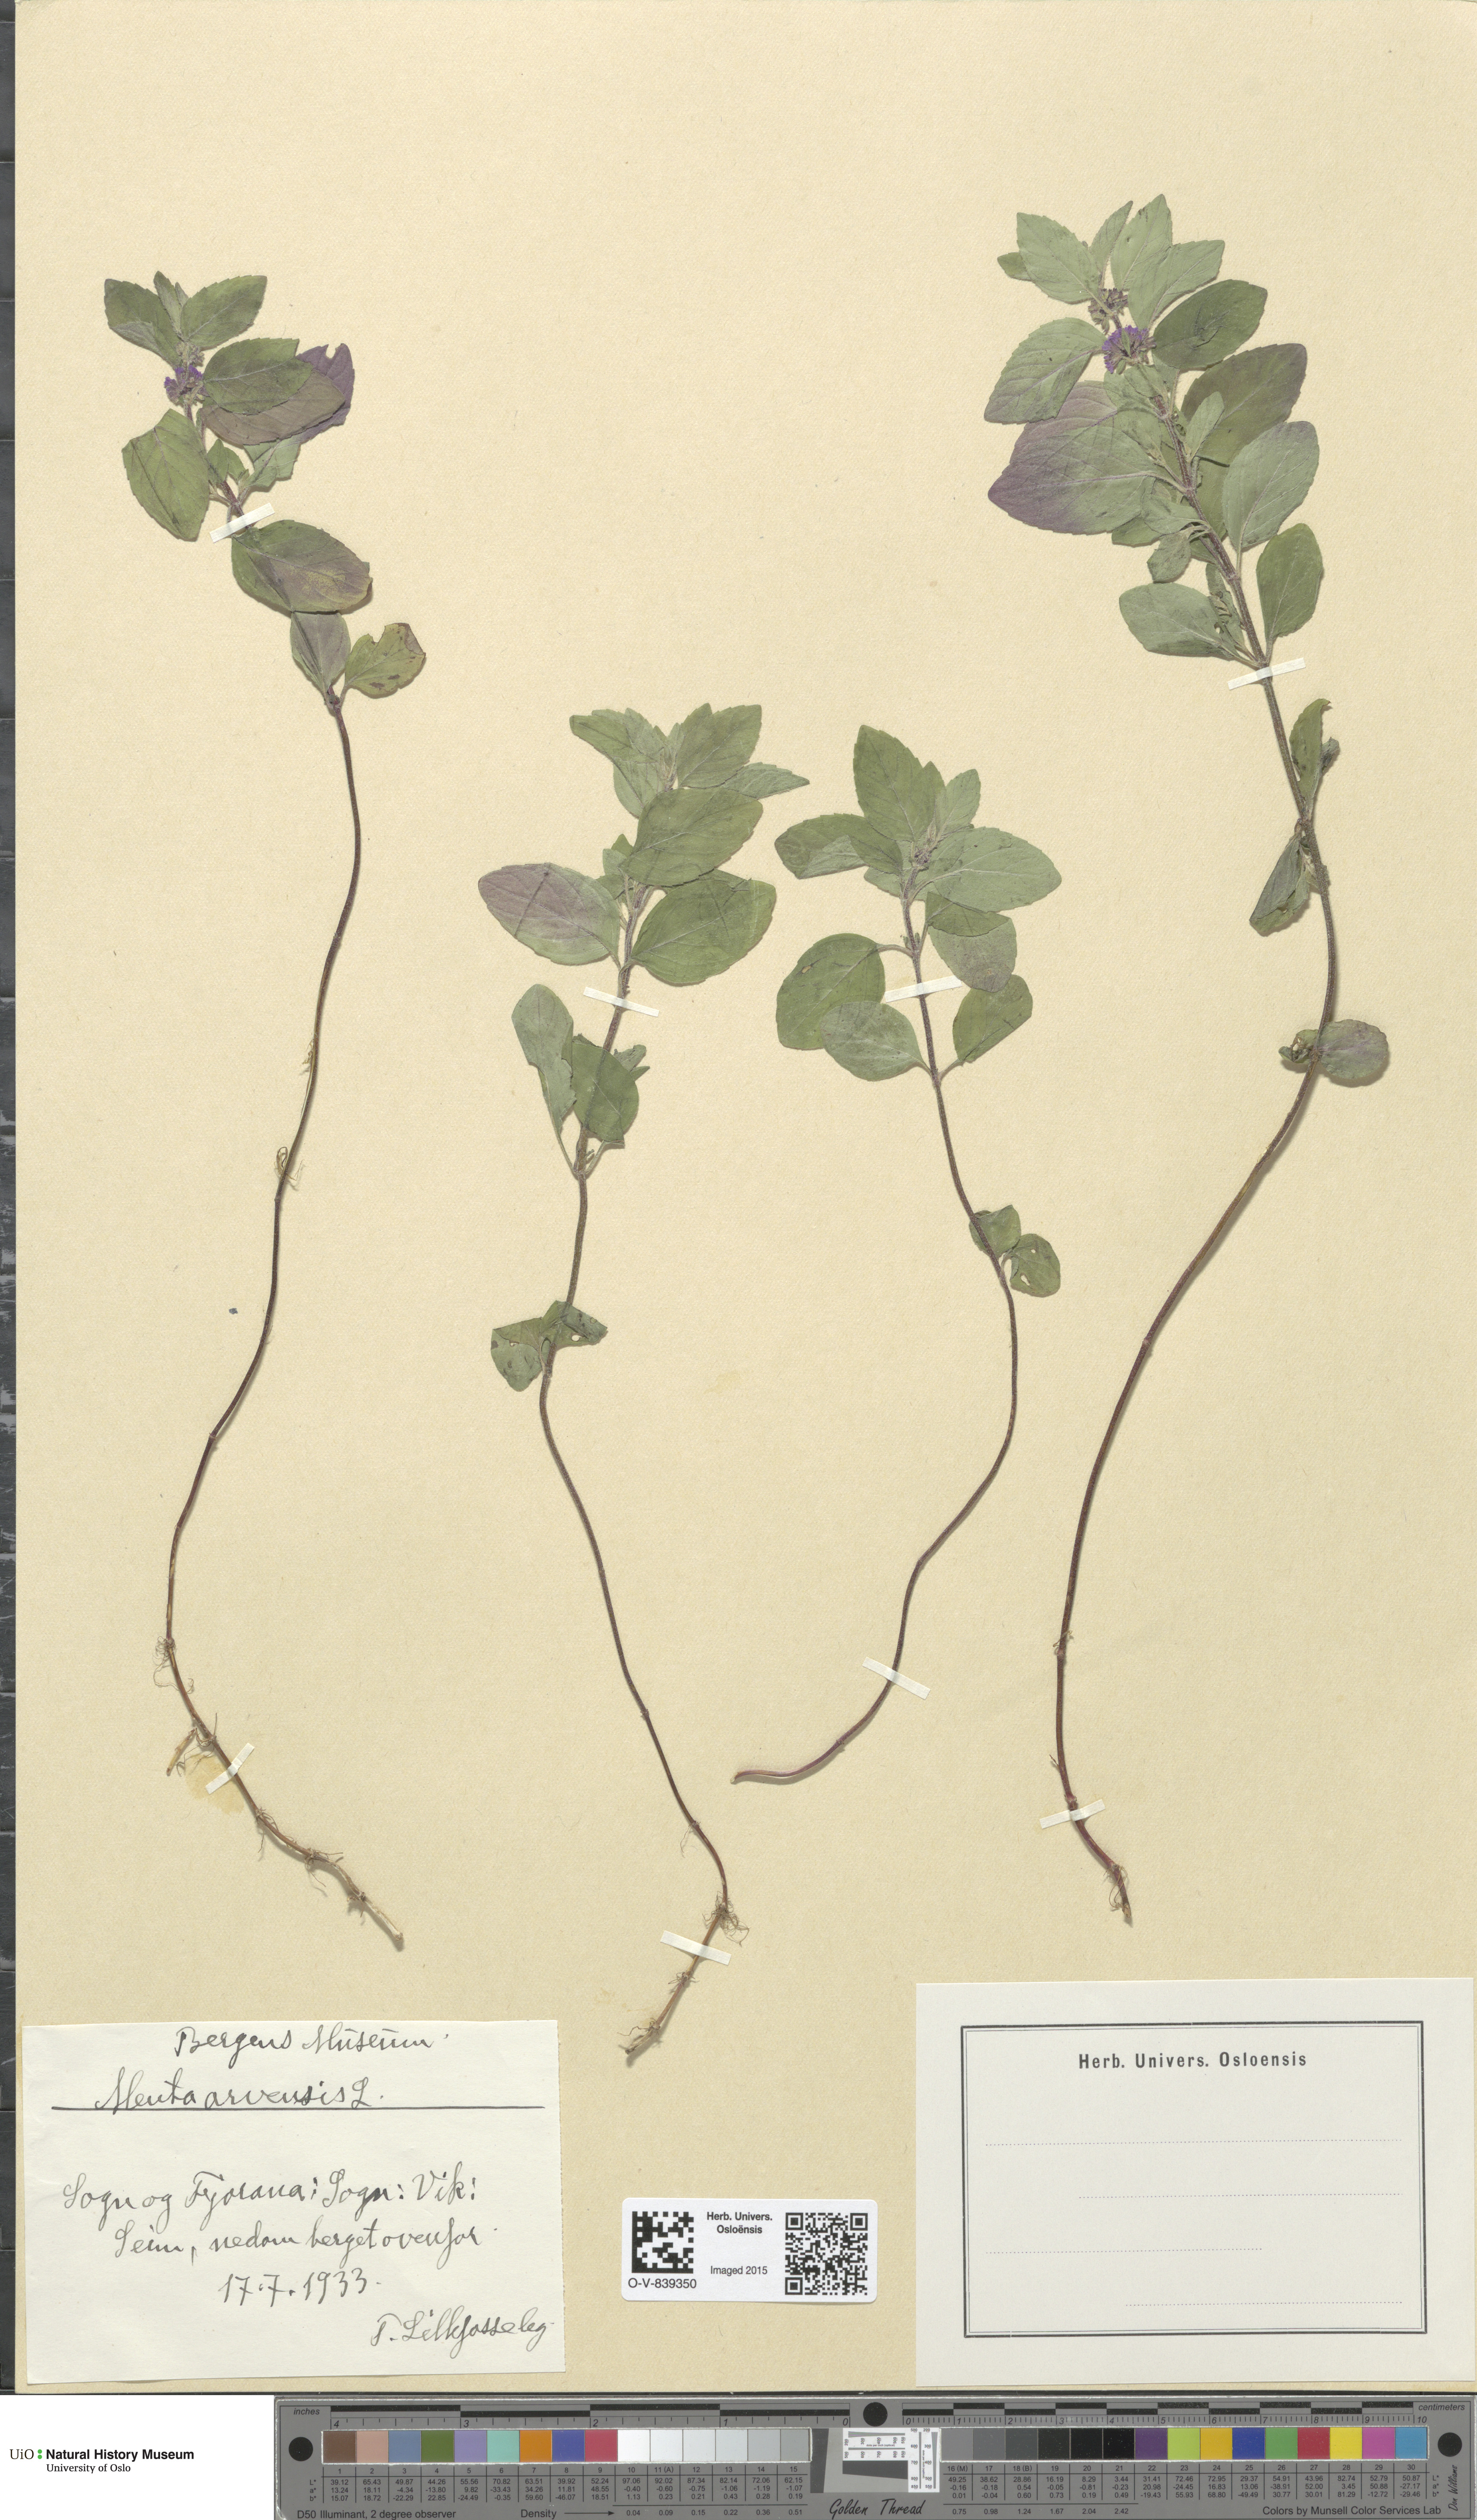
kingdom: Plantae
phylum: Tracheophyta
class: Magnoliopsida
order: Lamiales
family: Lamiaceae
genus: Mentha
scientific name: Mentha arvensis
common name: Corn mint
